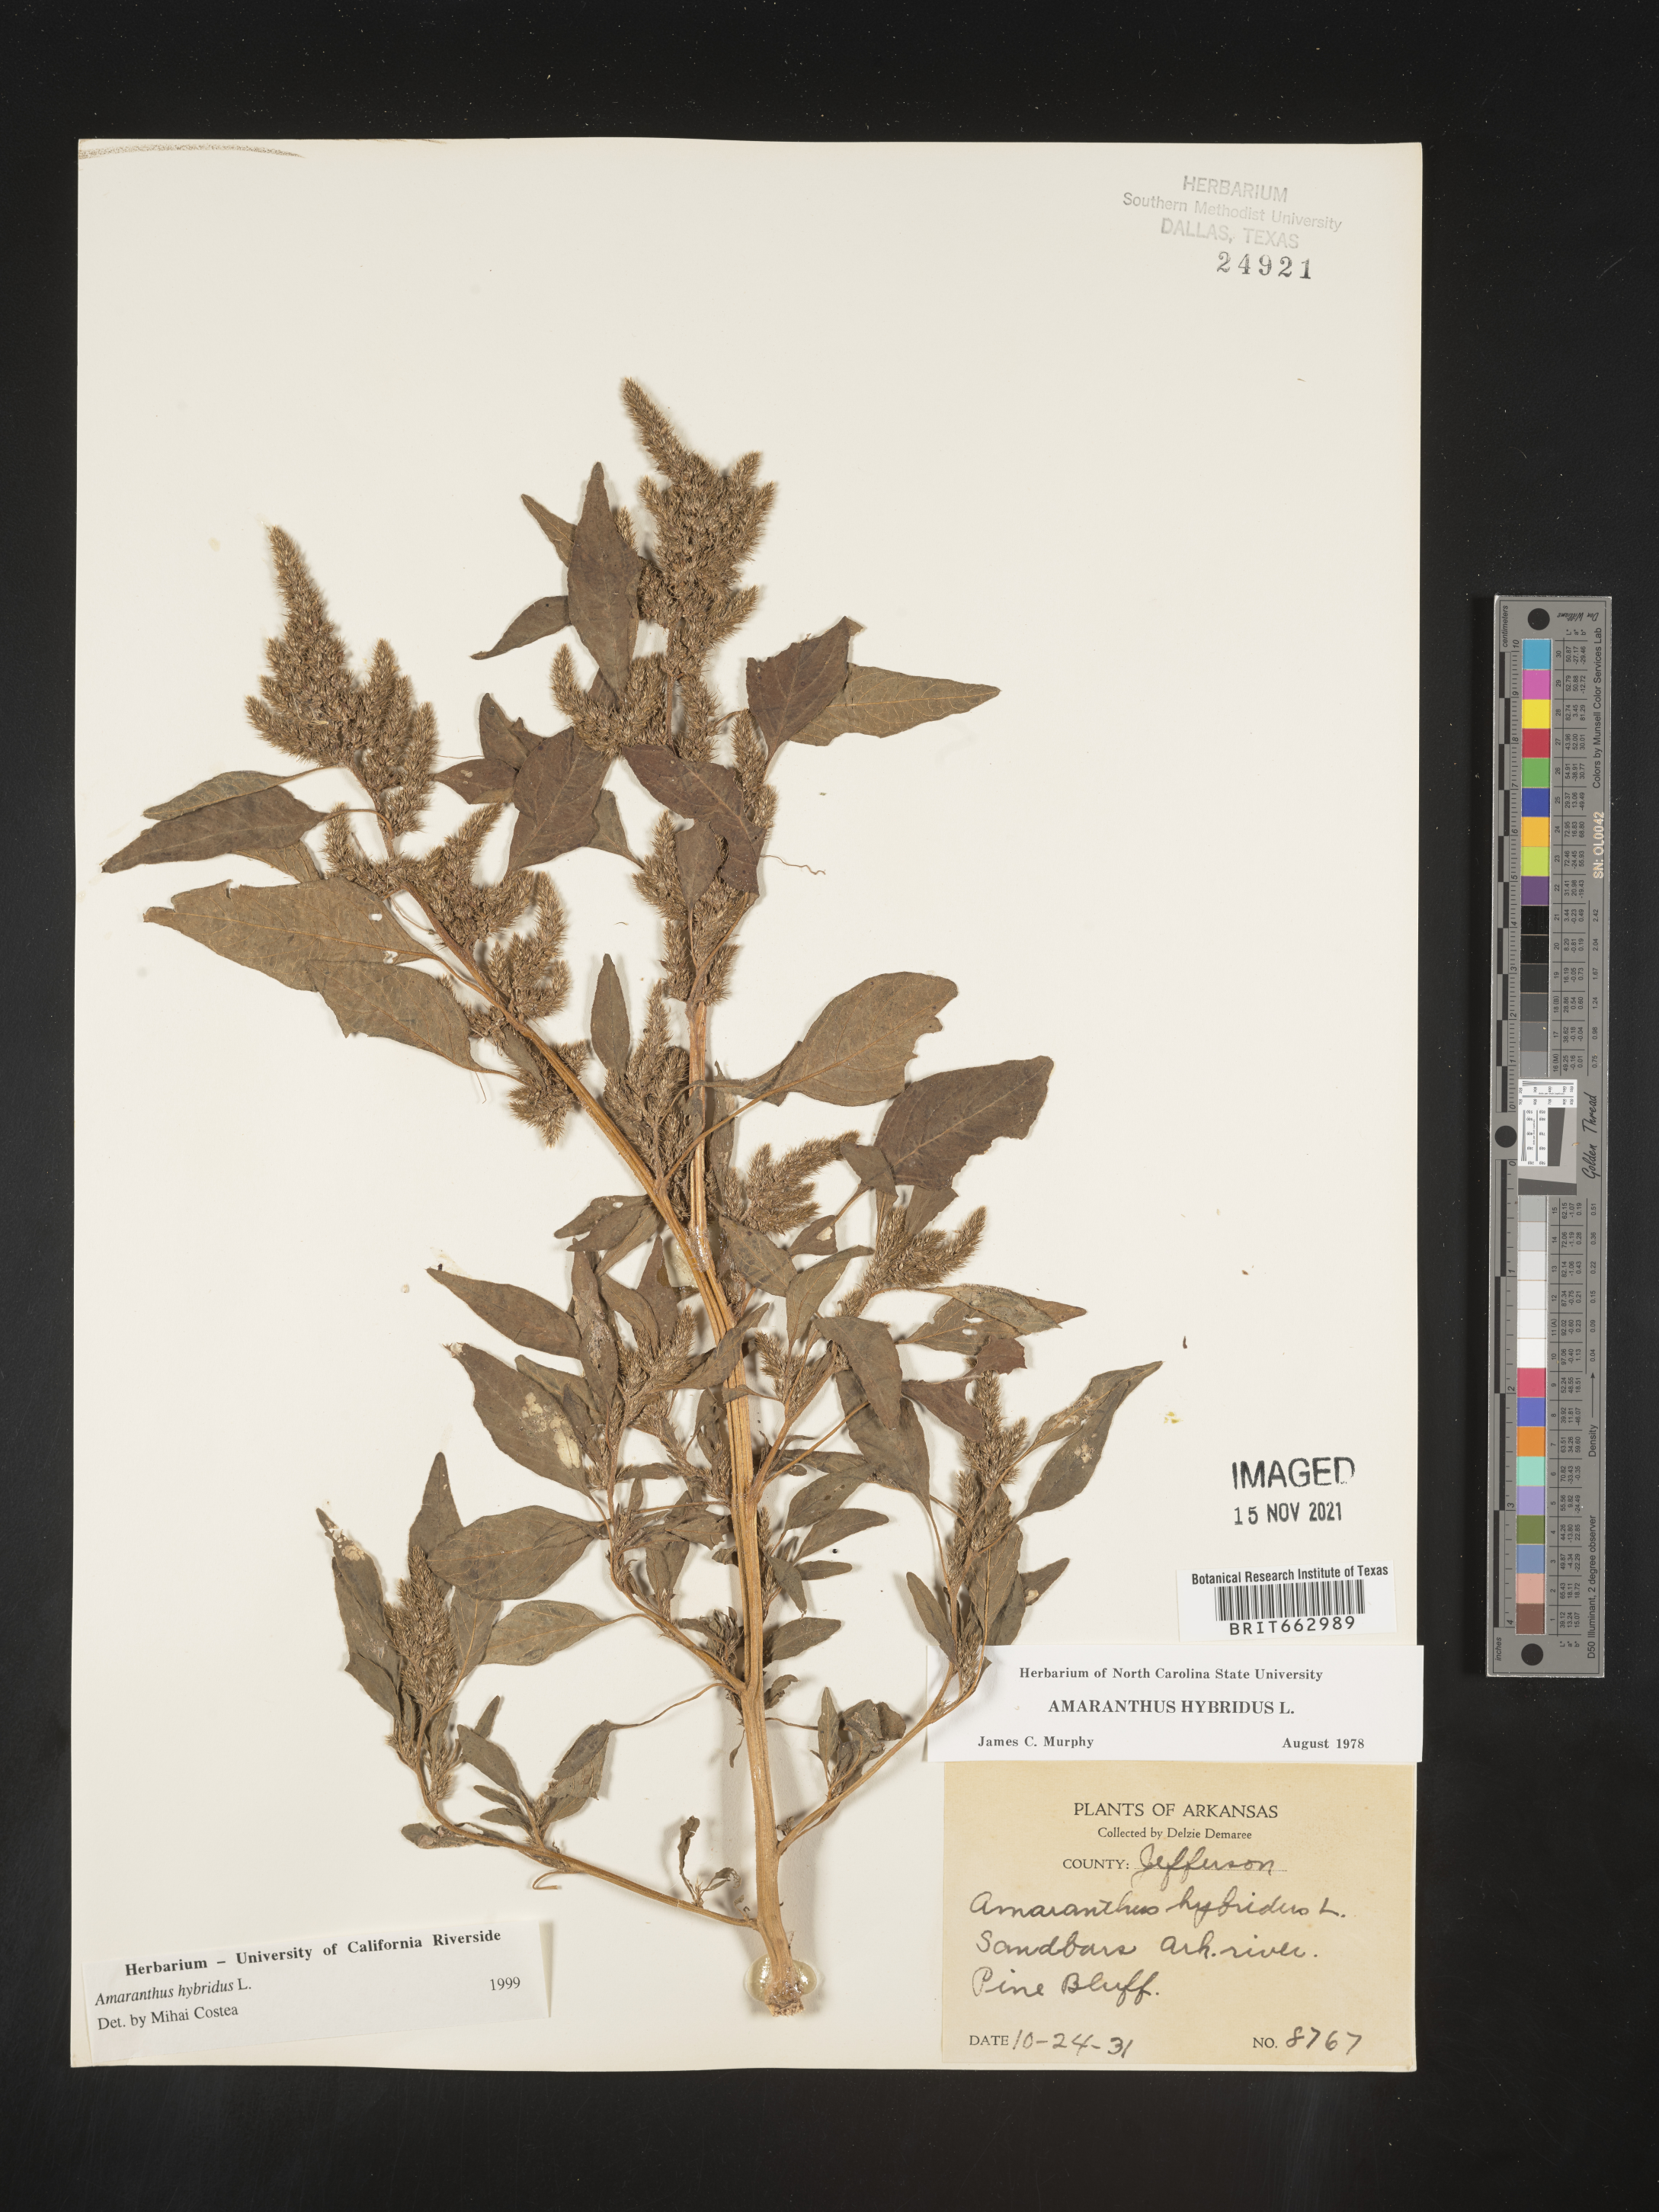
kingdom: Plantae
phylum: Tracheophyta
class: Magnoliopsida
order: Caryophyllales
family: Amaranthaceae
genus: Amaranthus
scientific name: Amaranthus hybridus
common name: Green amaranth
